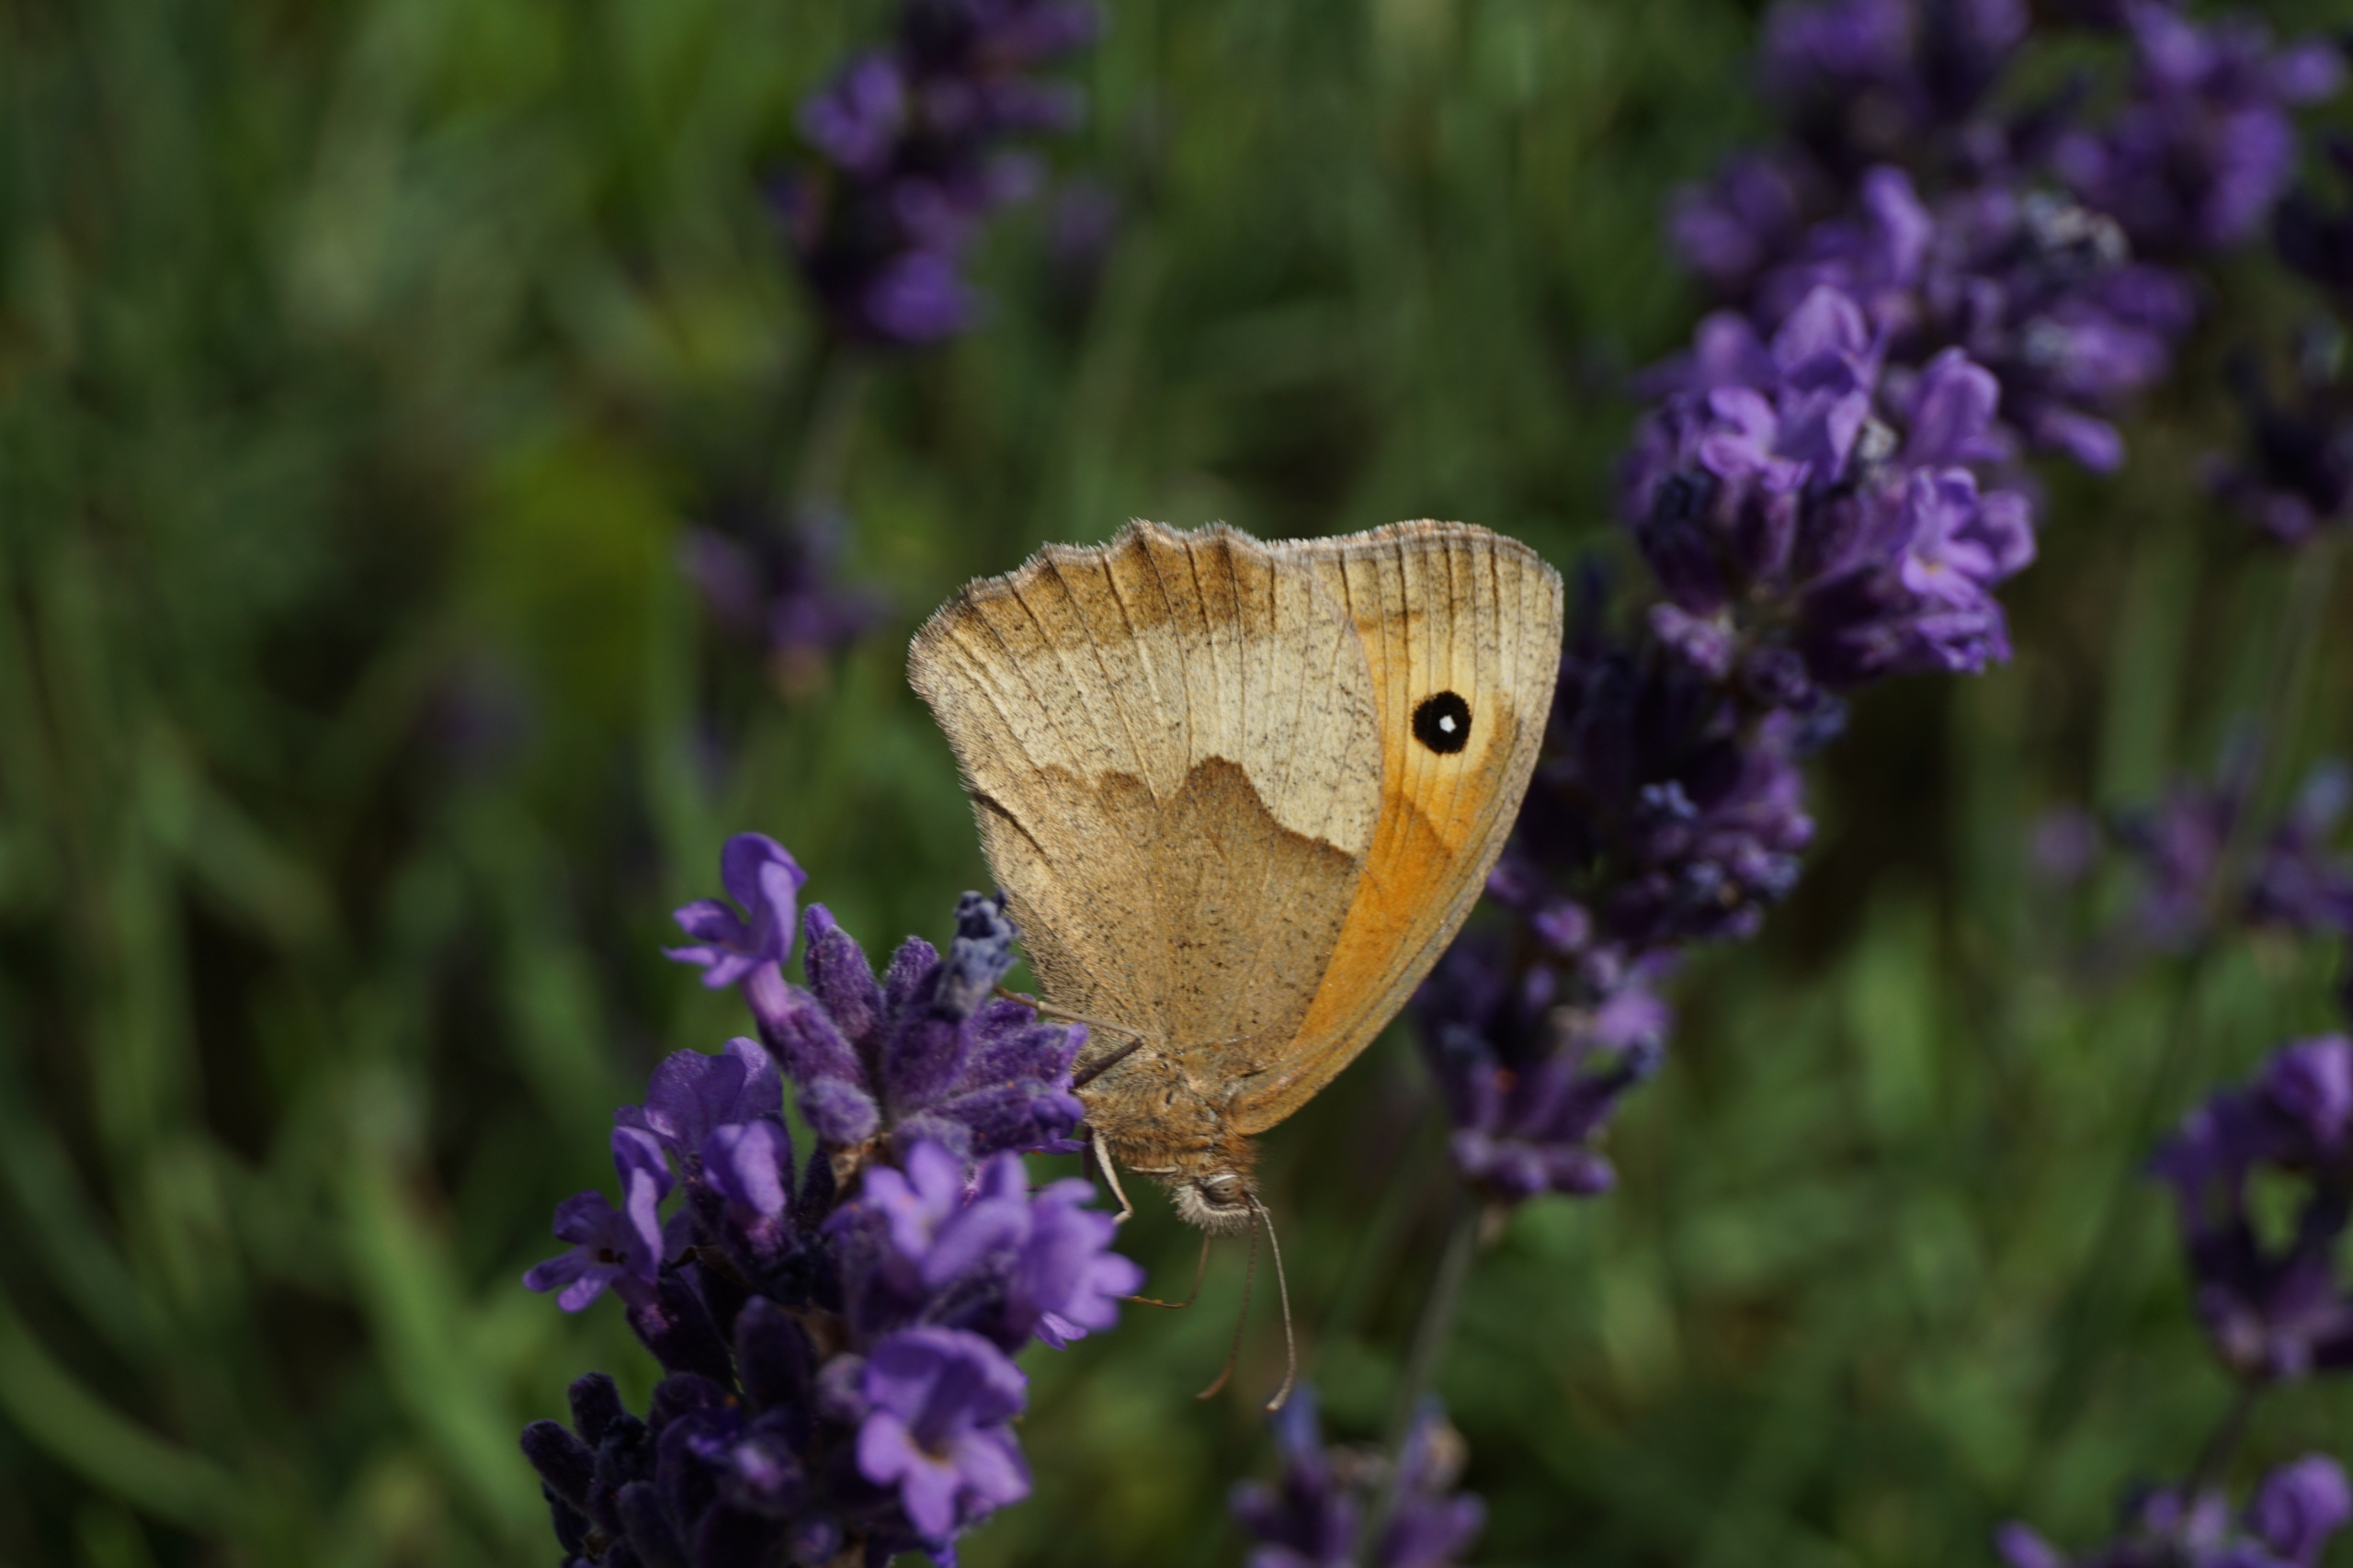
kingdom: Animalia
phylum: Arthropoda
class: Insecta
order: Lepidoptera
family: Nymphalidae
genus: Maniola
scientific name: Maniola jurtina
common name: Græsrandøje
